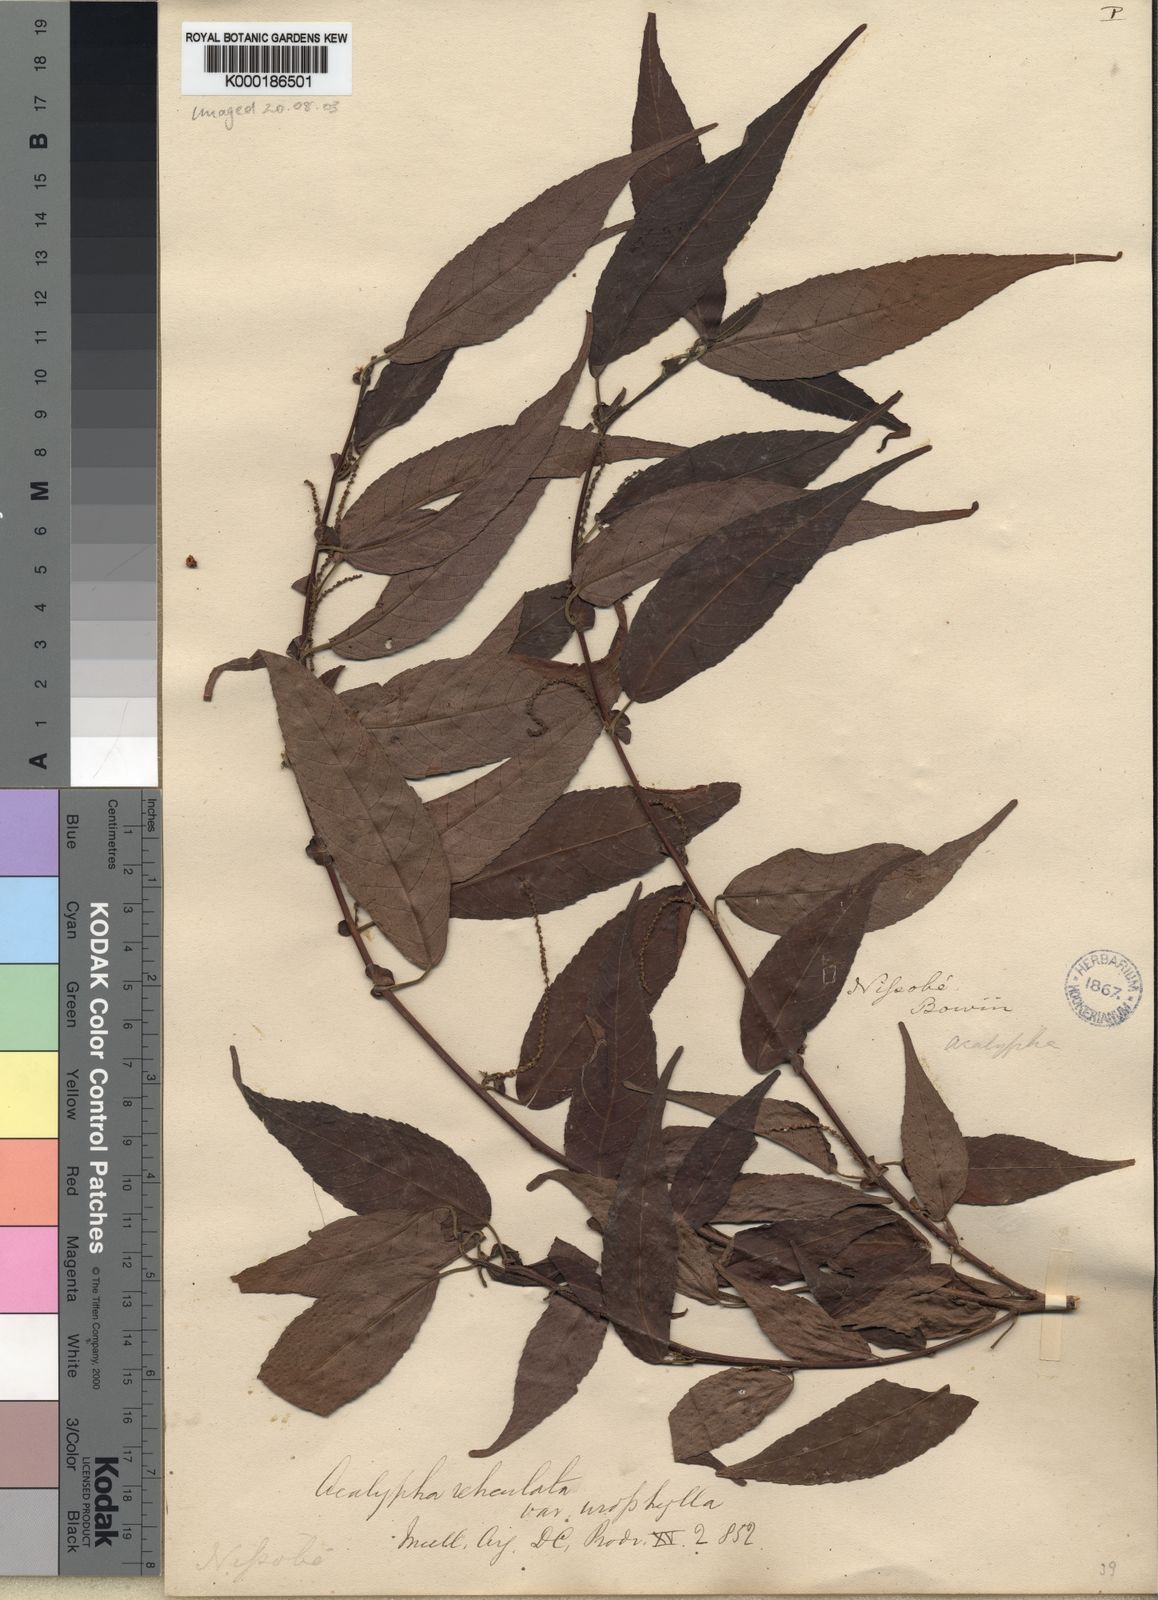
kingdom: Plantae
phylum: Tracheophyta
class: Magnoliopsida
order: Malpighiales
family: Euphorbiaceae
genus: Acalypha
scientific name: Acalypha urophylla
